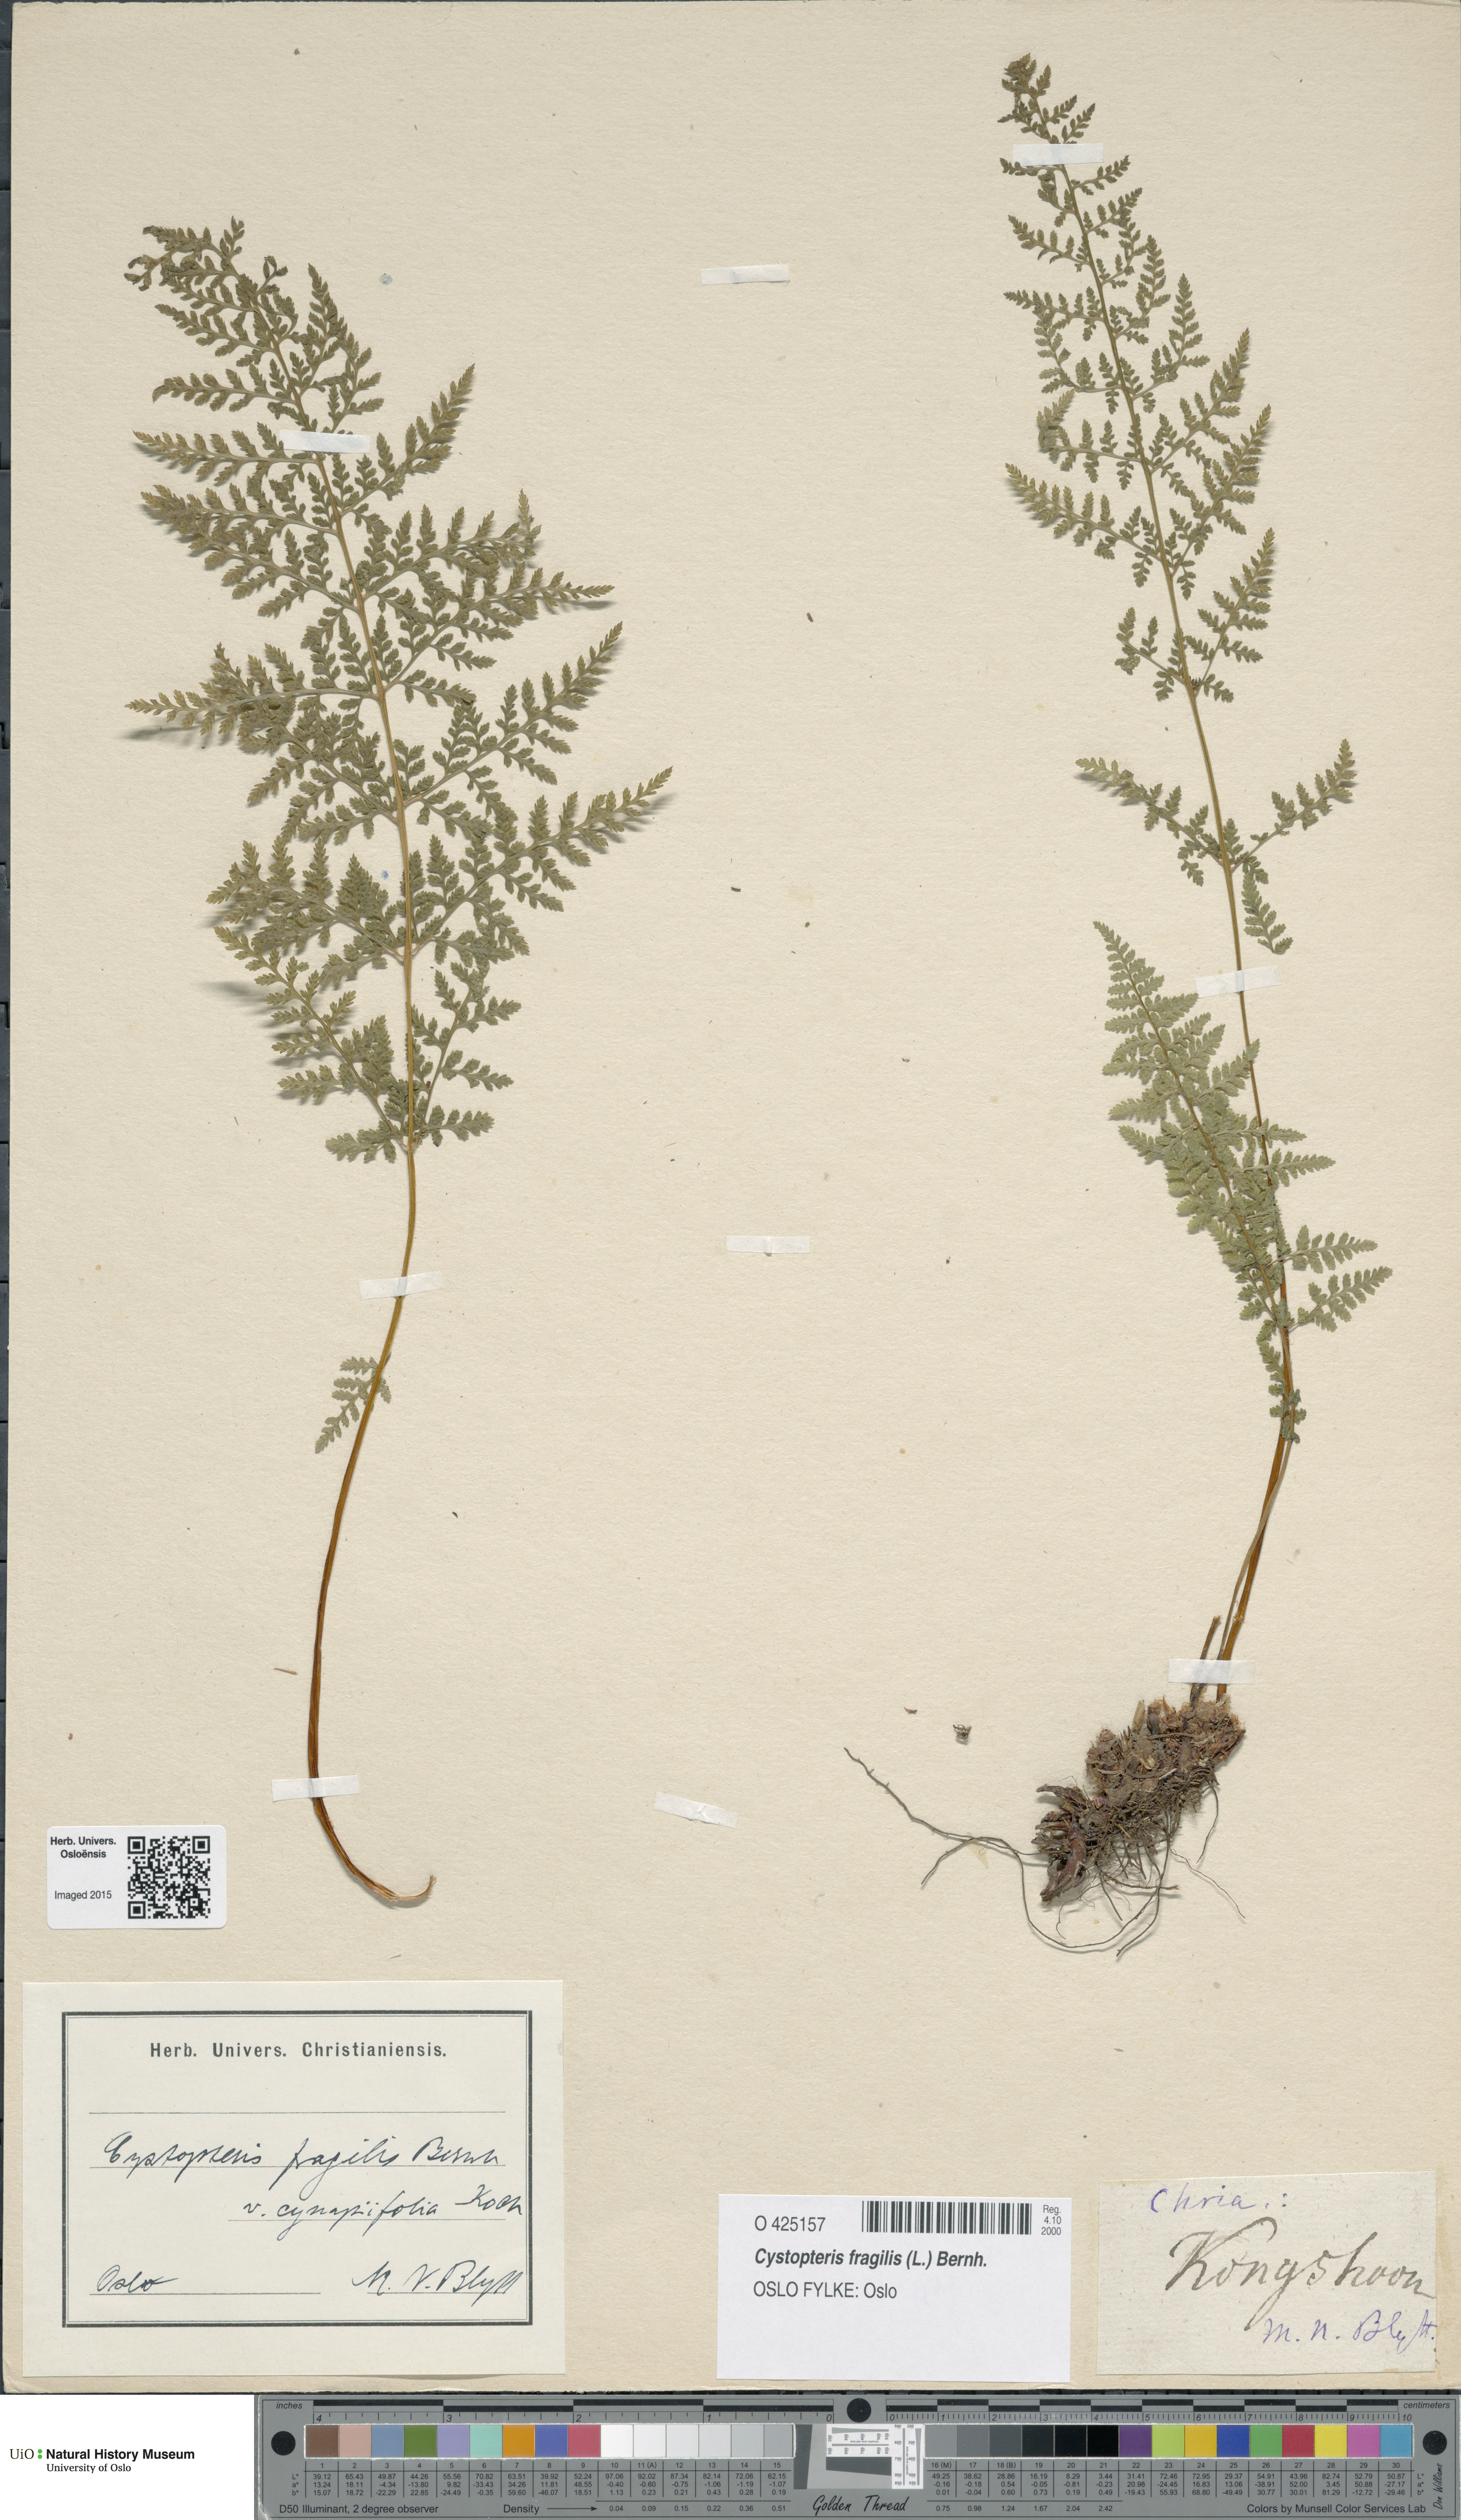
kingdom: Plantae
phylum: Tracheophyta
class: Polypodiopsida
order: Polypodiales
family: Cystopteridaceae
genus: Cystopteris
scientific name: Cystopteris fragilis
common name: Brittle bladder fern
